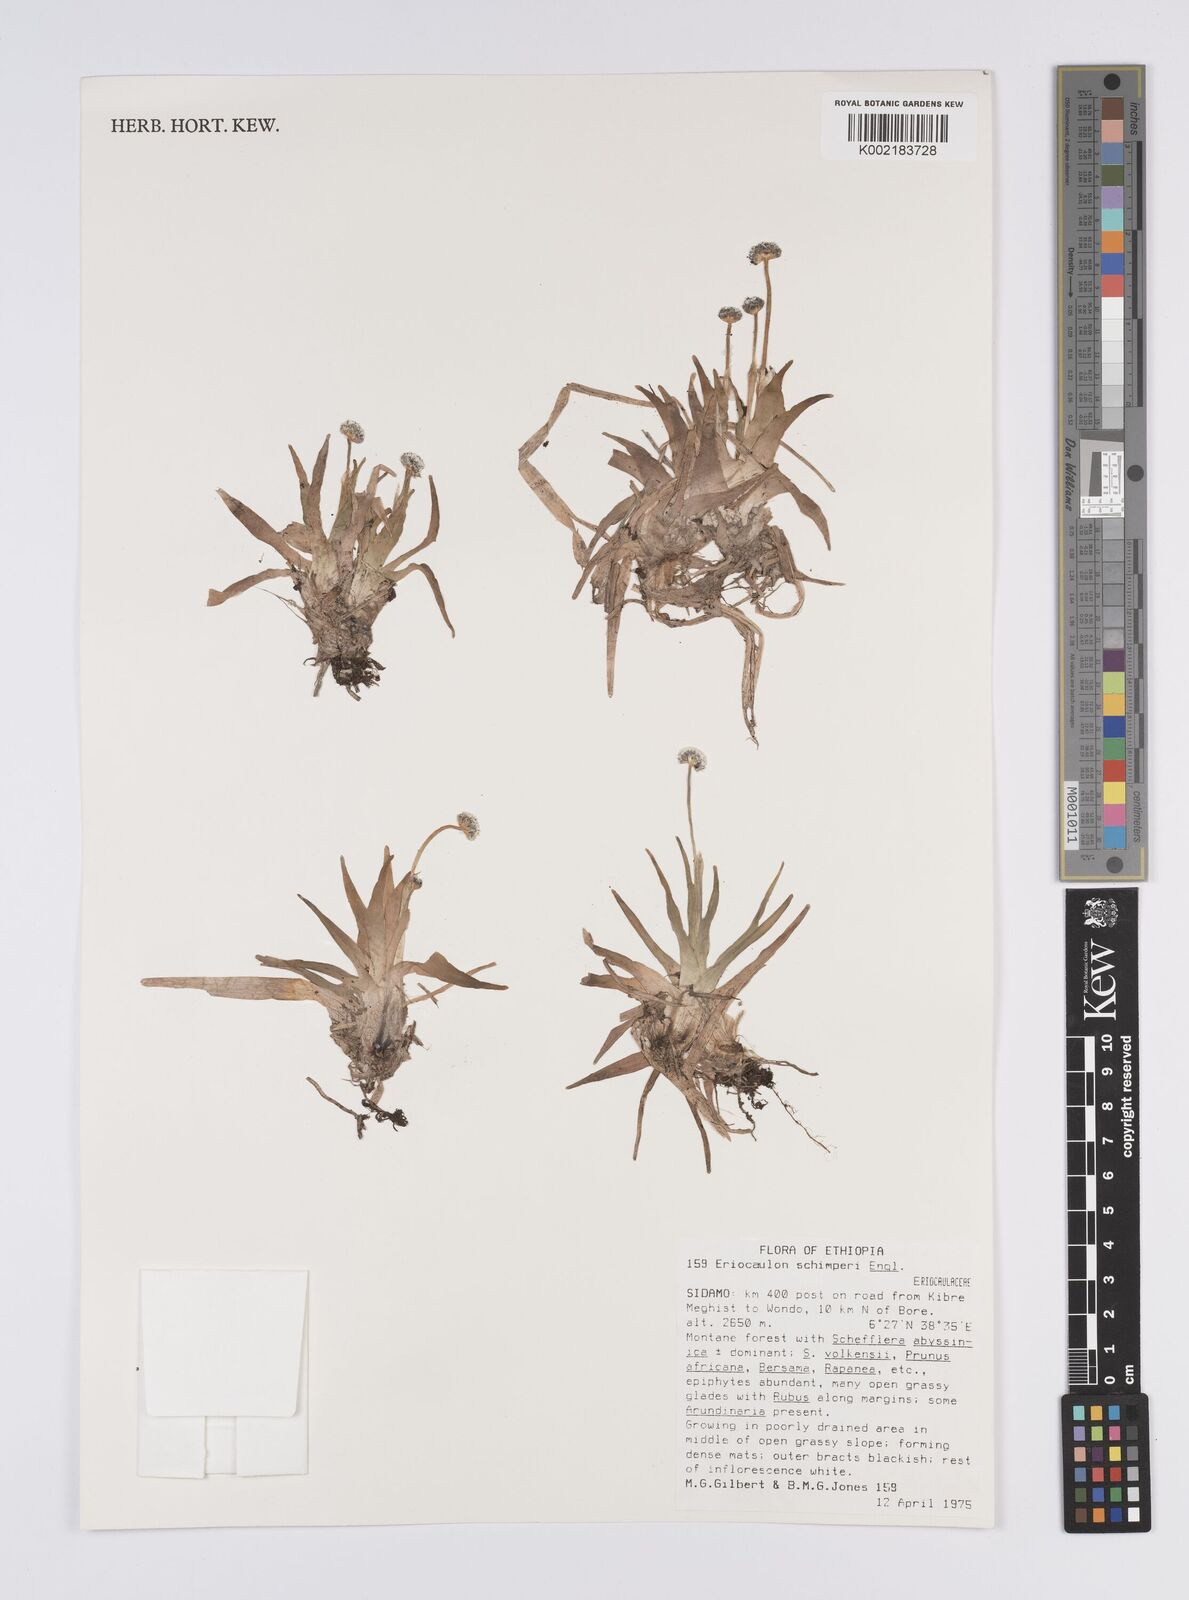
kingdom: Plantae
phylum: Tracheophyta
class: Liliopsida
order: Poales
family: Eriocaulaceae
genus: Eriocaulon
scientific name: Eriocaulon schimperi
